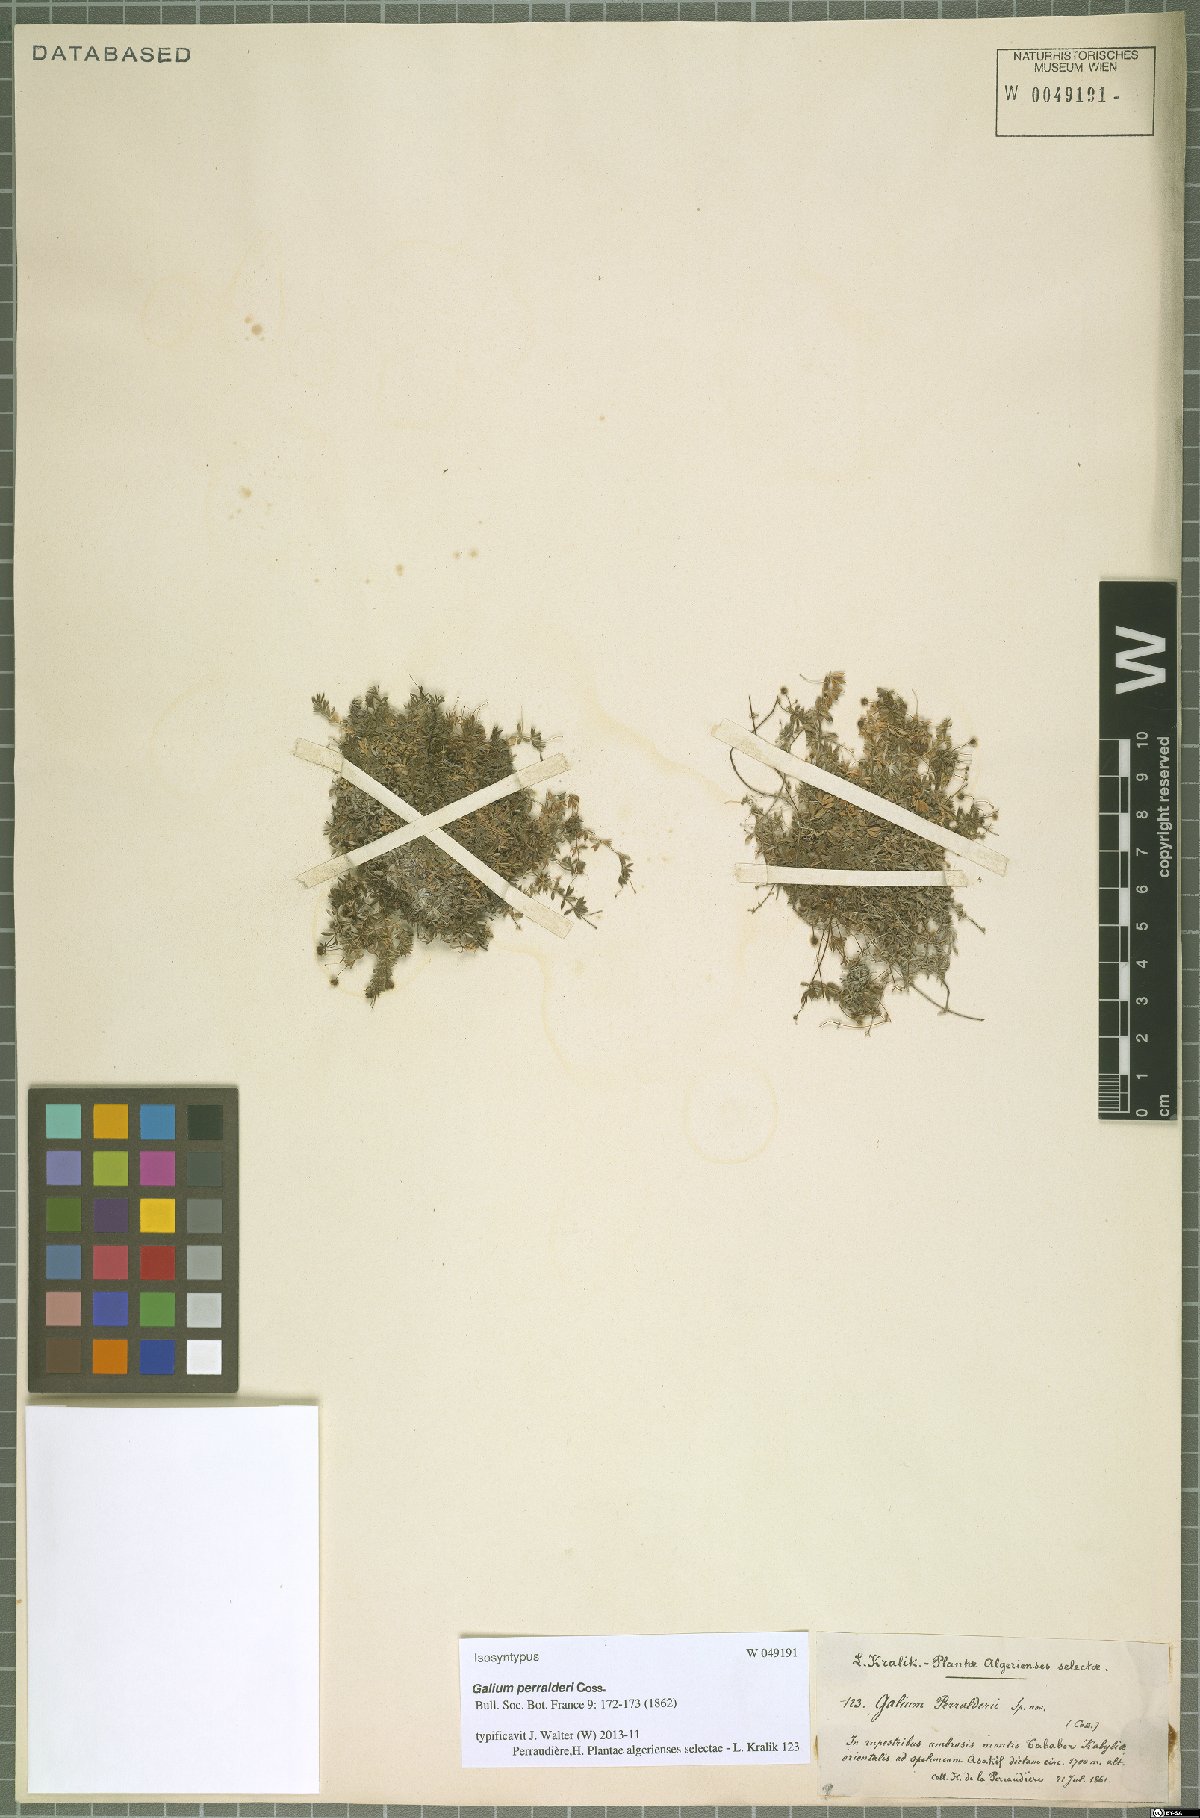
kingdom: Plantae
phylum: Tracheophyta
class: Magnoliopsida
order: Gentianales
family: Rubiaceae
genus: Galium
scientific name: Galium perralderii
